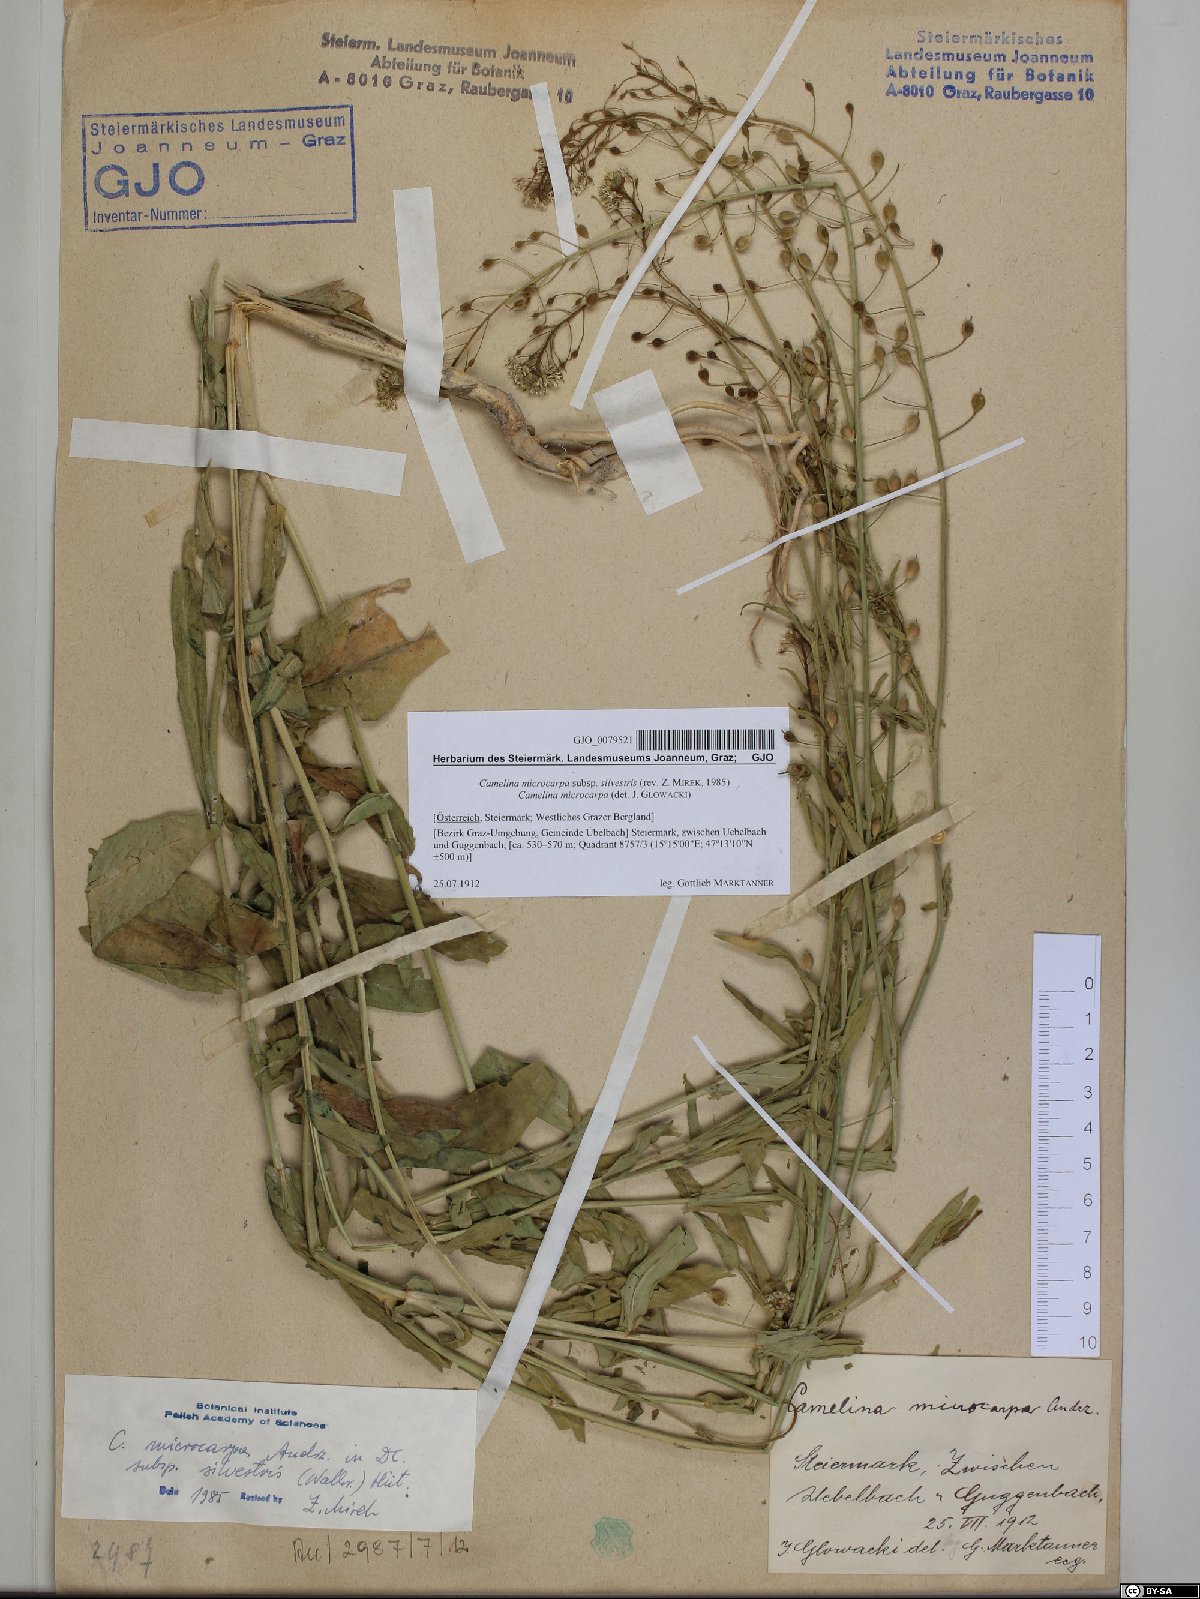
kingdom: Plantae
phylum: Tracheophyta
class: Magnoliopsida
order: Brassicales
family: Brassicaceae
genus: Camelina
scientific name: Camelina microcarpa
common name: Lesser gold-of-pleasure
